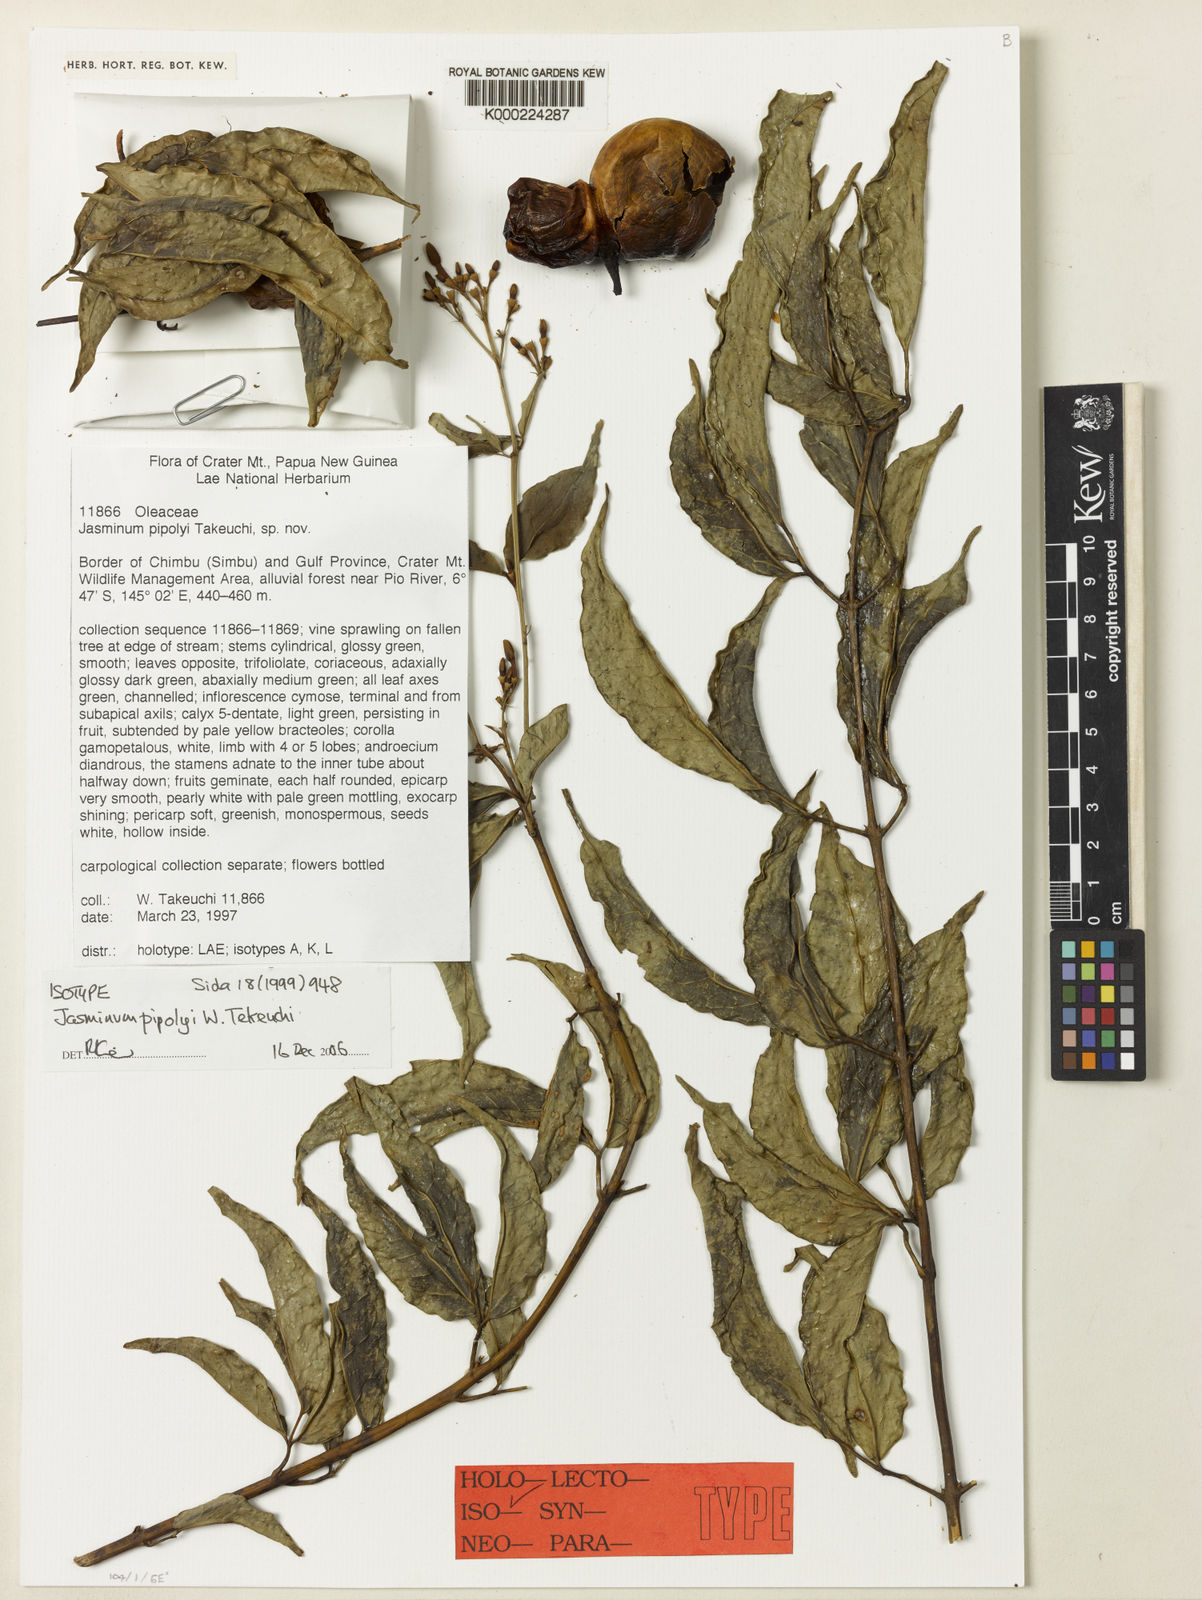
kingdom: Plantae
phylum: Tracheophyta
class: Magnoliopsida
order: Lamiales
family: Oleaceae
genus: Jasminum
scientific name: Jasminum pipolyi
